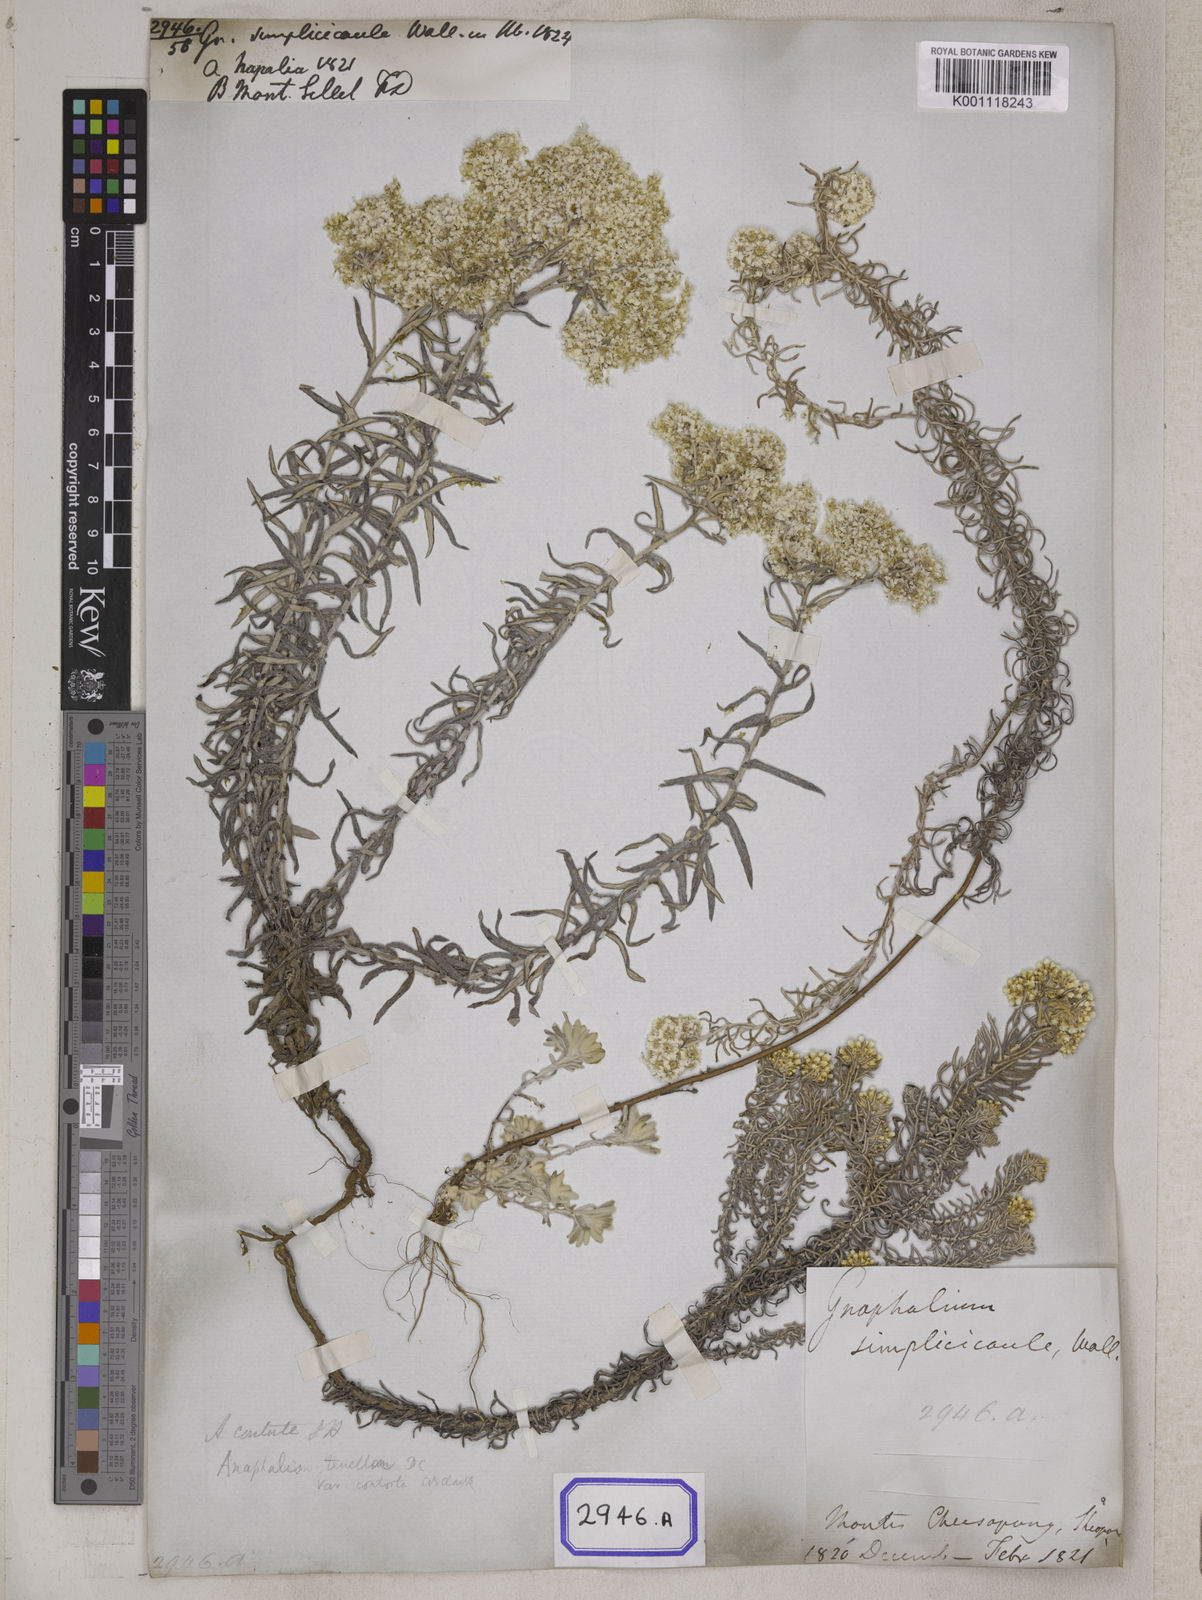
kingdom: Plantae
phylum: Tracheophyta
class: Magnoliopsida
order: Asterales
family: Asteraceae
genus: Anaphalis
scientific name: Anaphalis contorta
